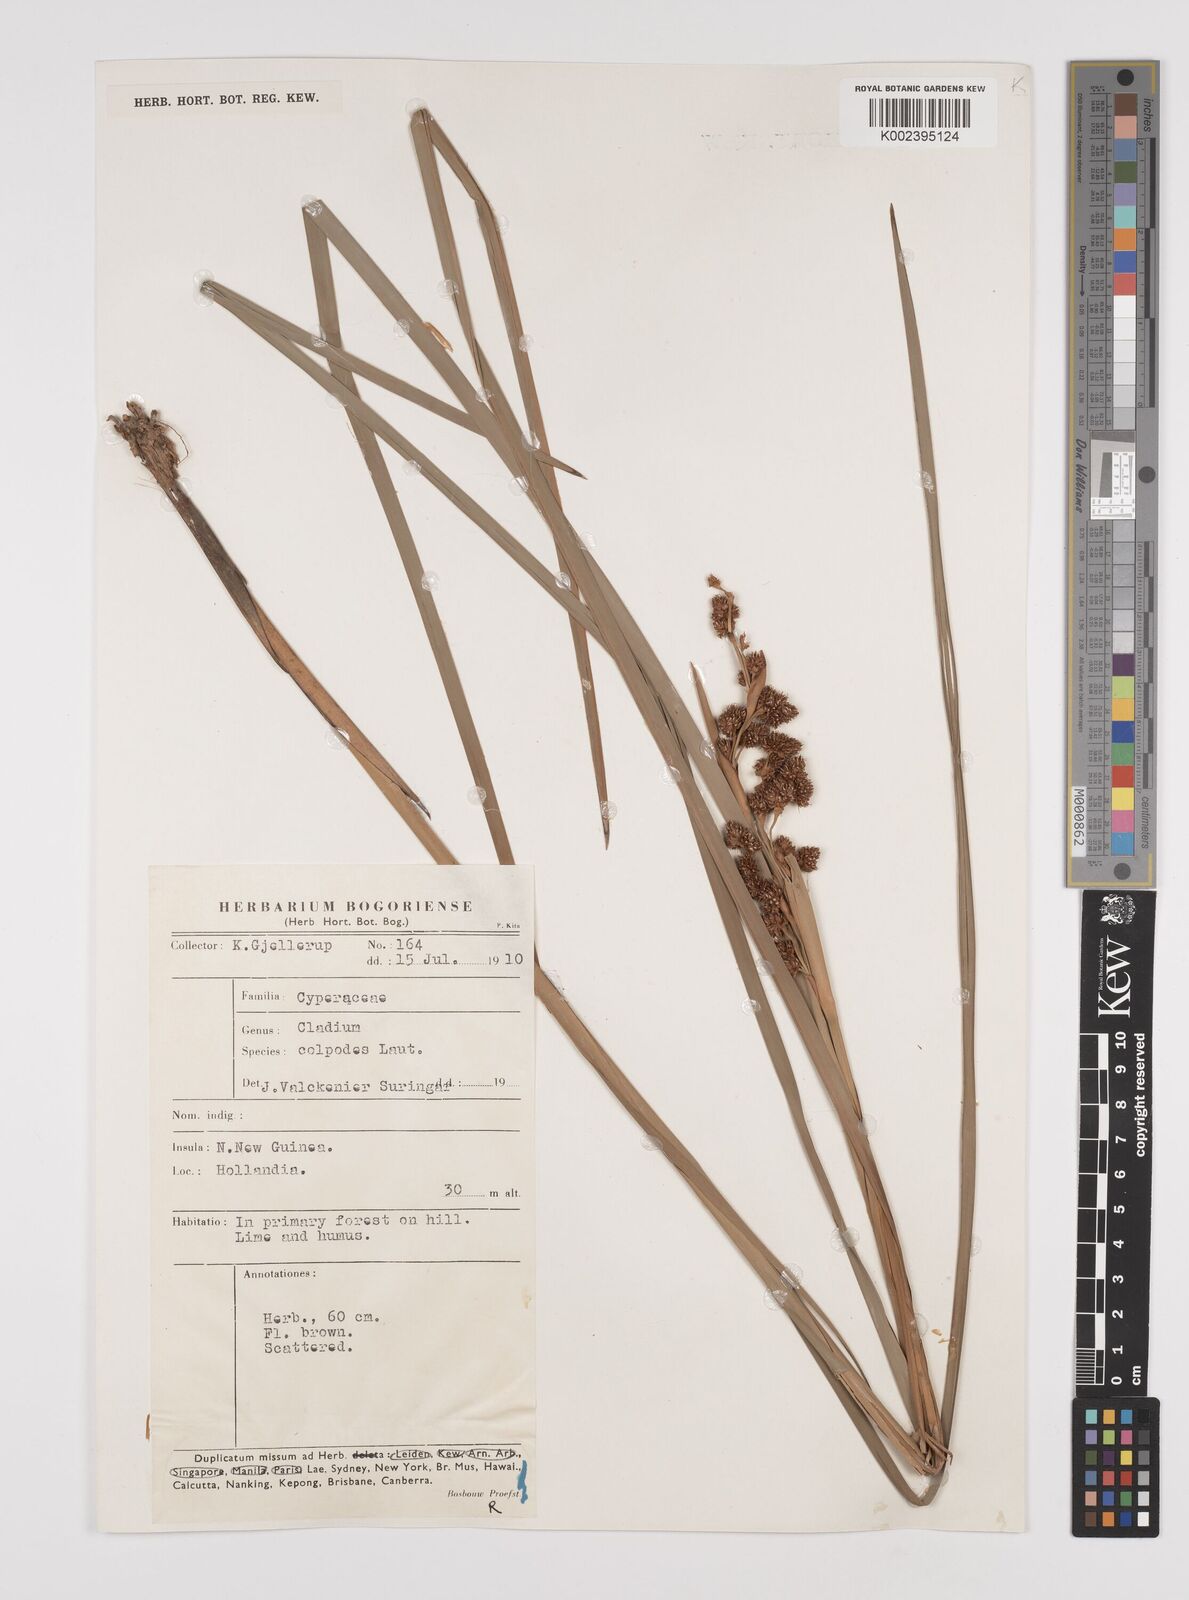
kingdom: Plantae
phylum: Tracheophyta
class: Liliopsida
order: Poales
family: Cyperaceae
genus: Machaerina
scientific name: Machaerina glomerata
